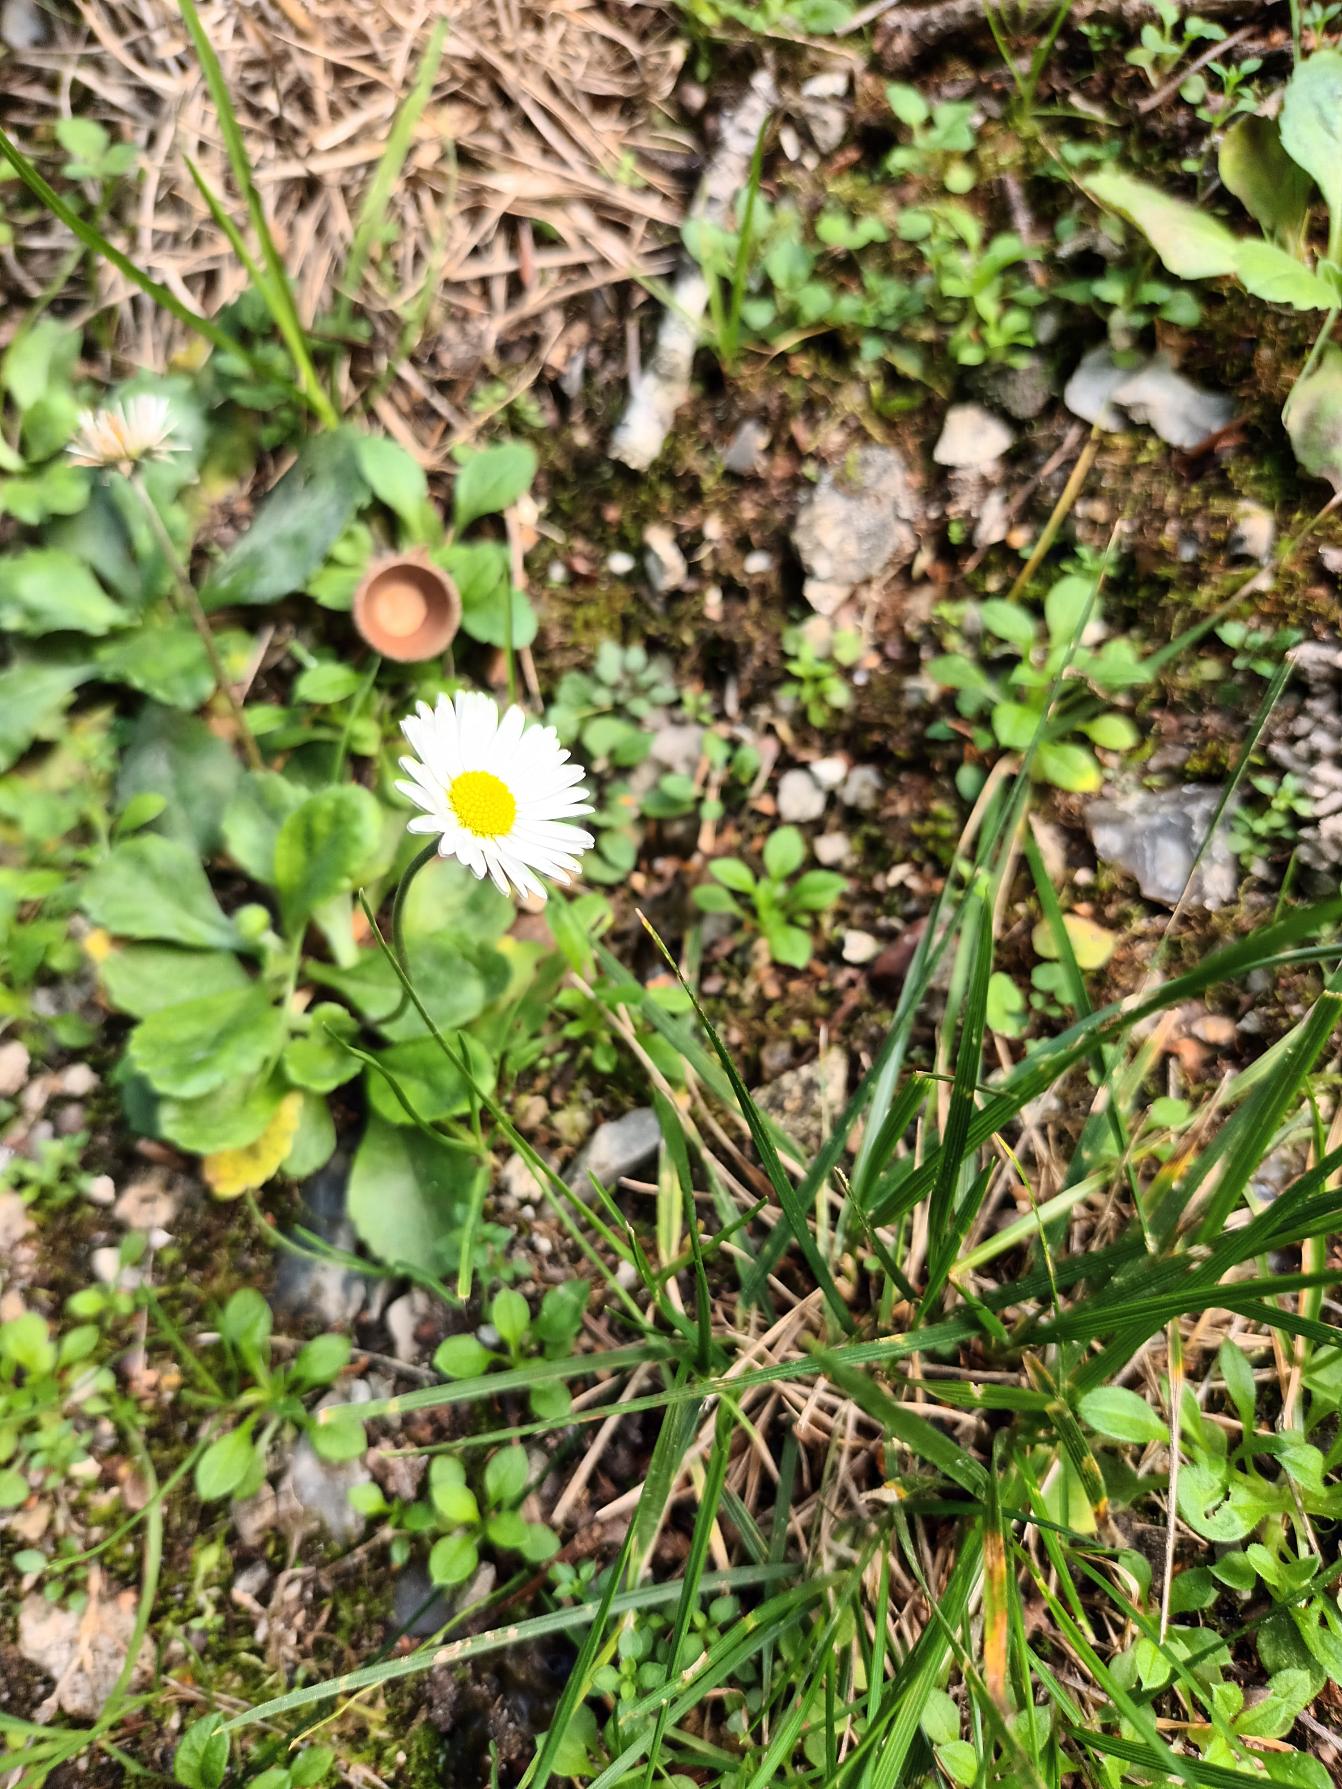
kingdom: Plantae
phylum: Tracheophyta
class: Magnoliopsida
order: Asterales
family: Asteraceae
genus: Bellis
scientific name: Bellis perennis
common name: Tusindfryd
